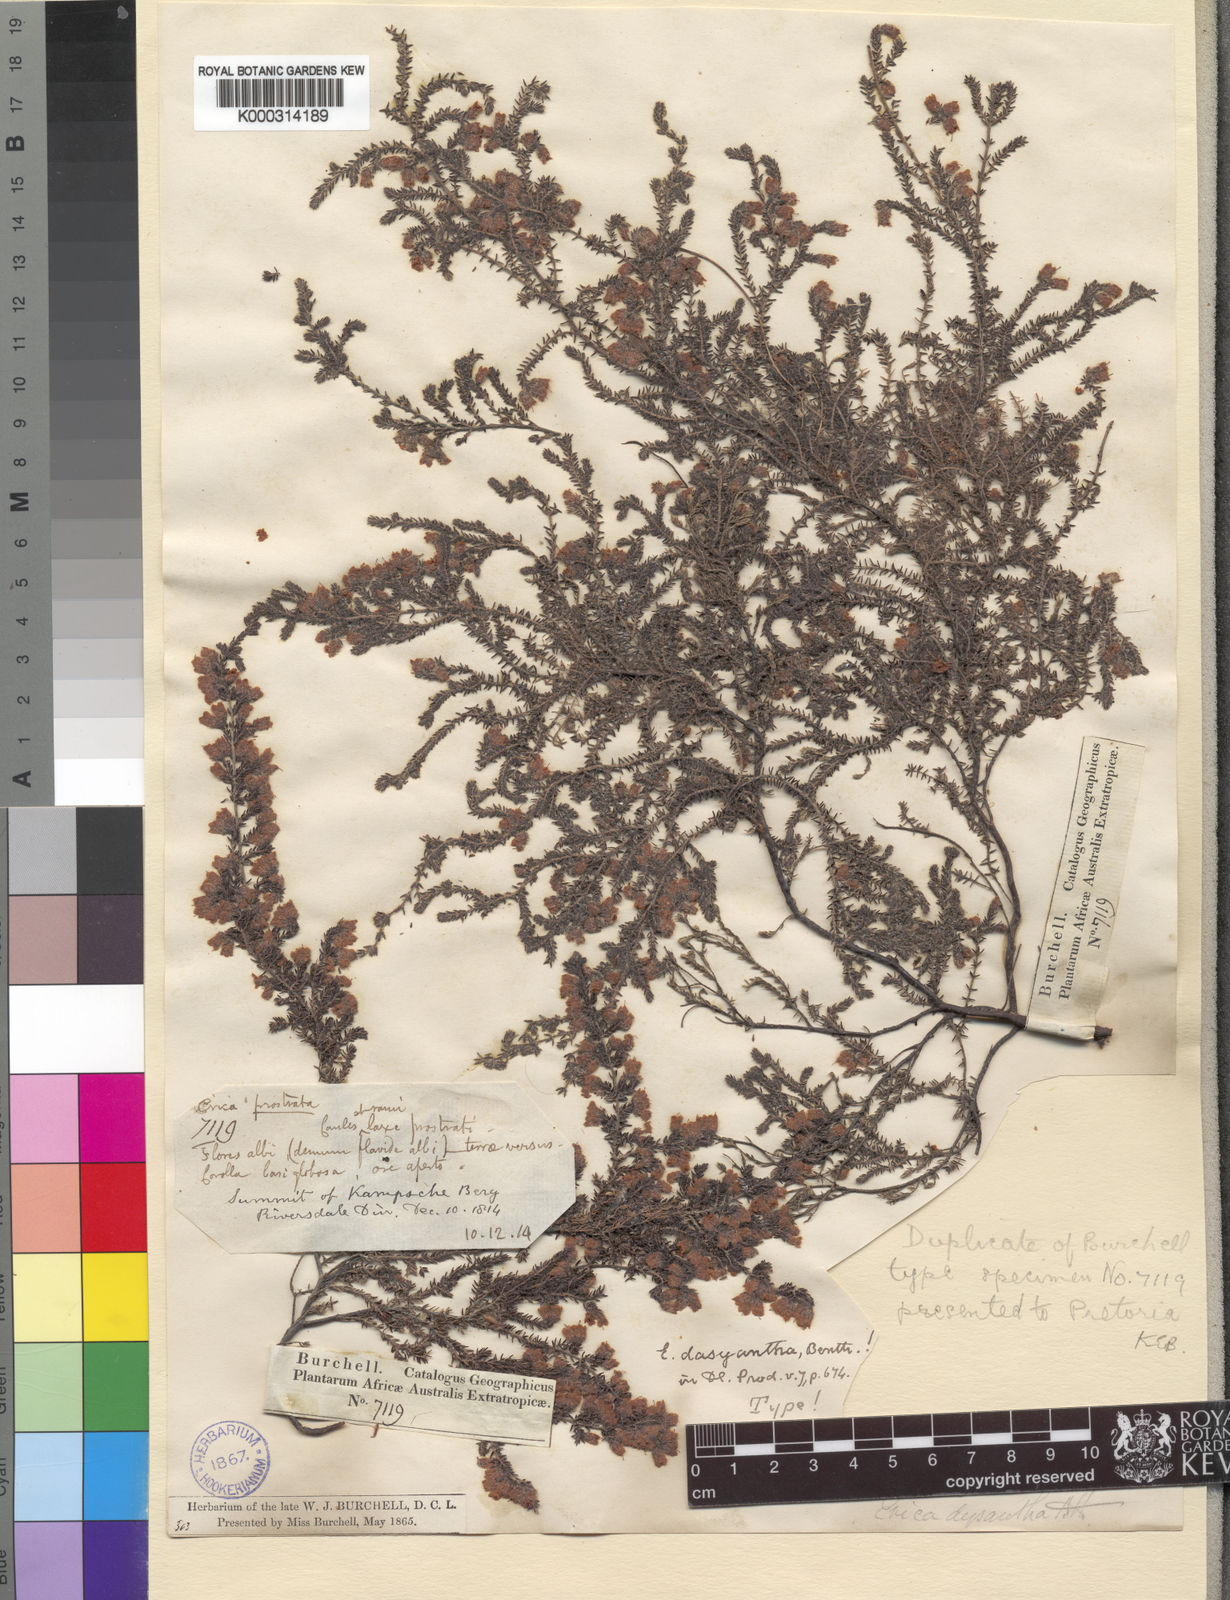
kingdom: Plantae
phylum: Tracheophyta
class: Magnoliopsida
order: Ericales
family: Ericaceae
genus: Erica
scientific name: Erica dysantha
